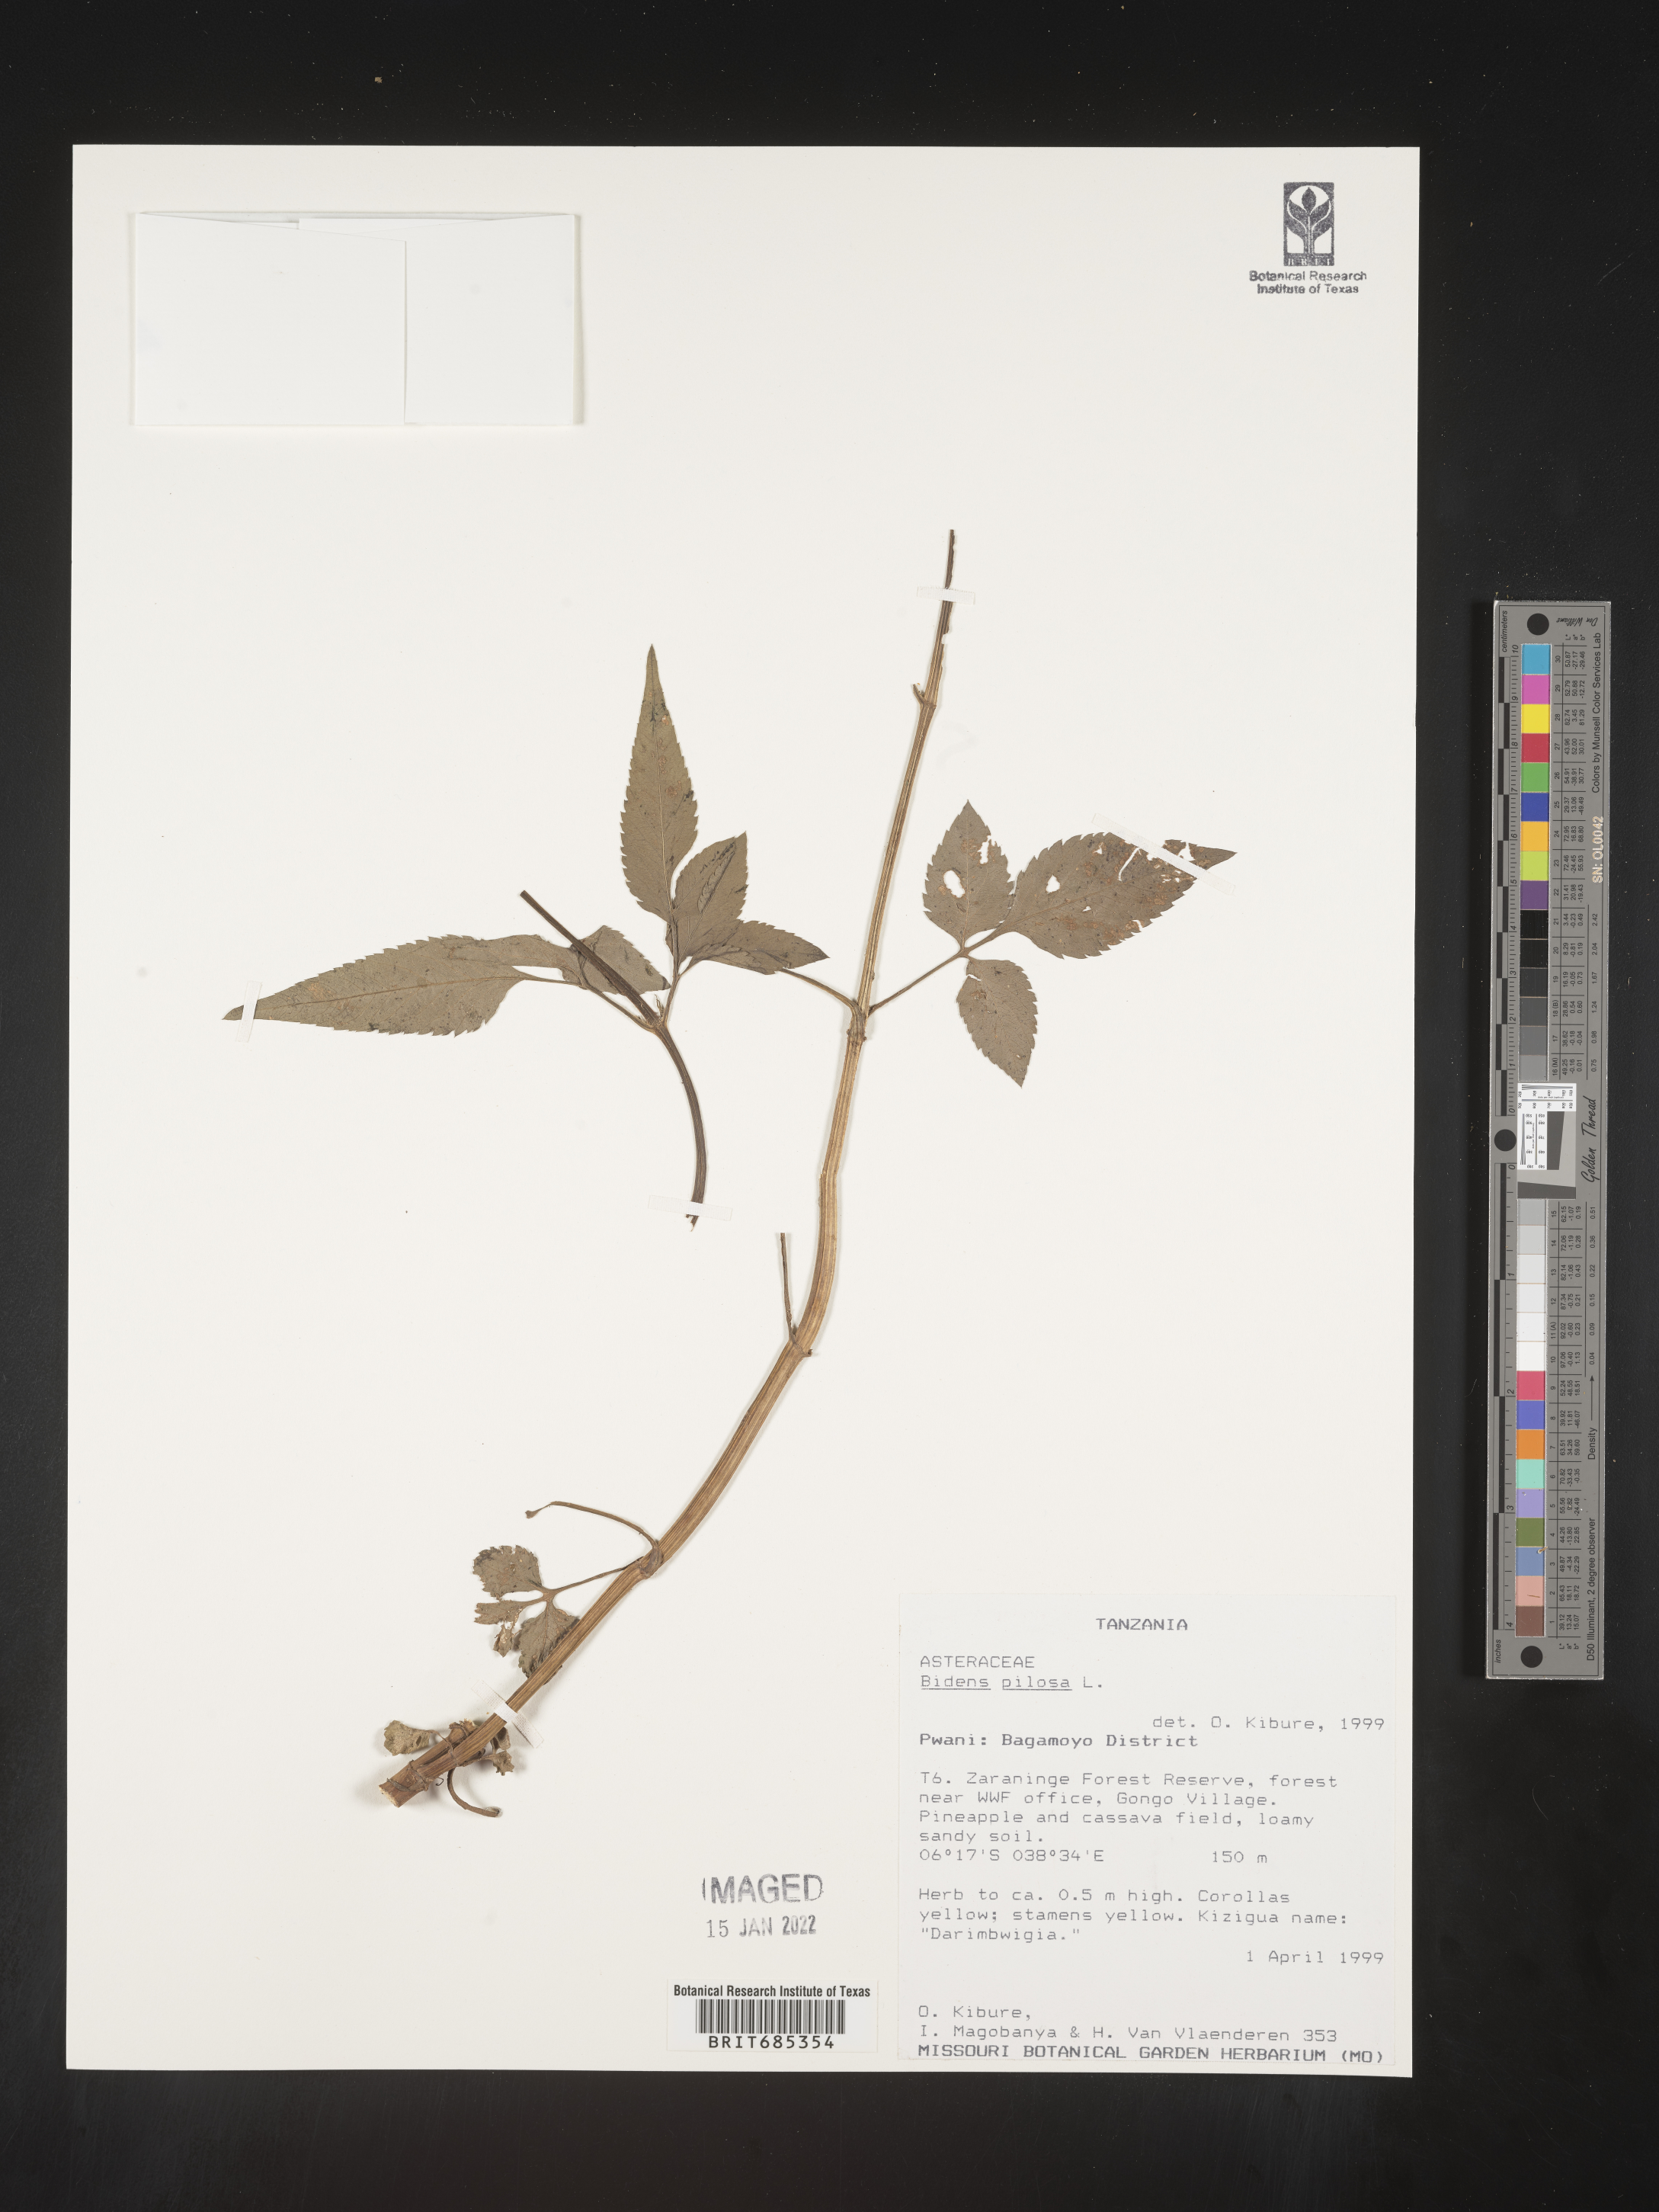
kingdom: Plantae
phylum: Tracheophyta
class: Magnoliopsida
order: Asterales
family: Asteraceae
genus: Bidens
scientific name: Bidens
